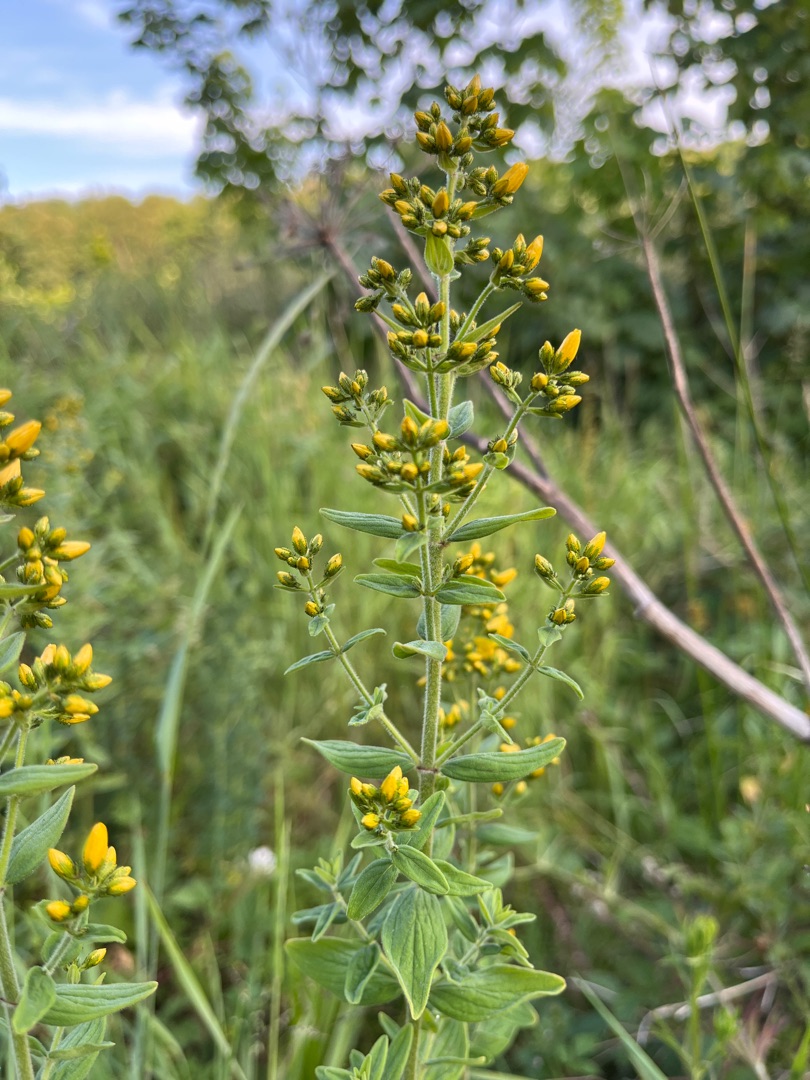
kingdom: Plantae
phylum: Tracheophyta
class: Magnoliopsida
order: Malpighiales
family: Hypericaceae
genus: Hypericum
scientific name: Hypericum hirsutum
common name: Lådden perikon
